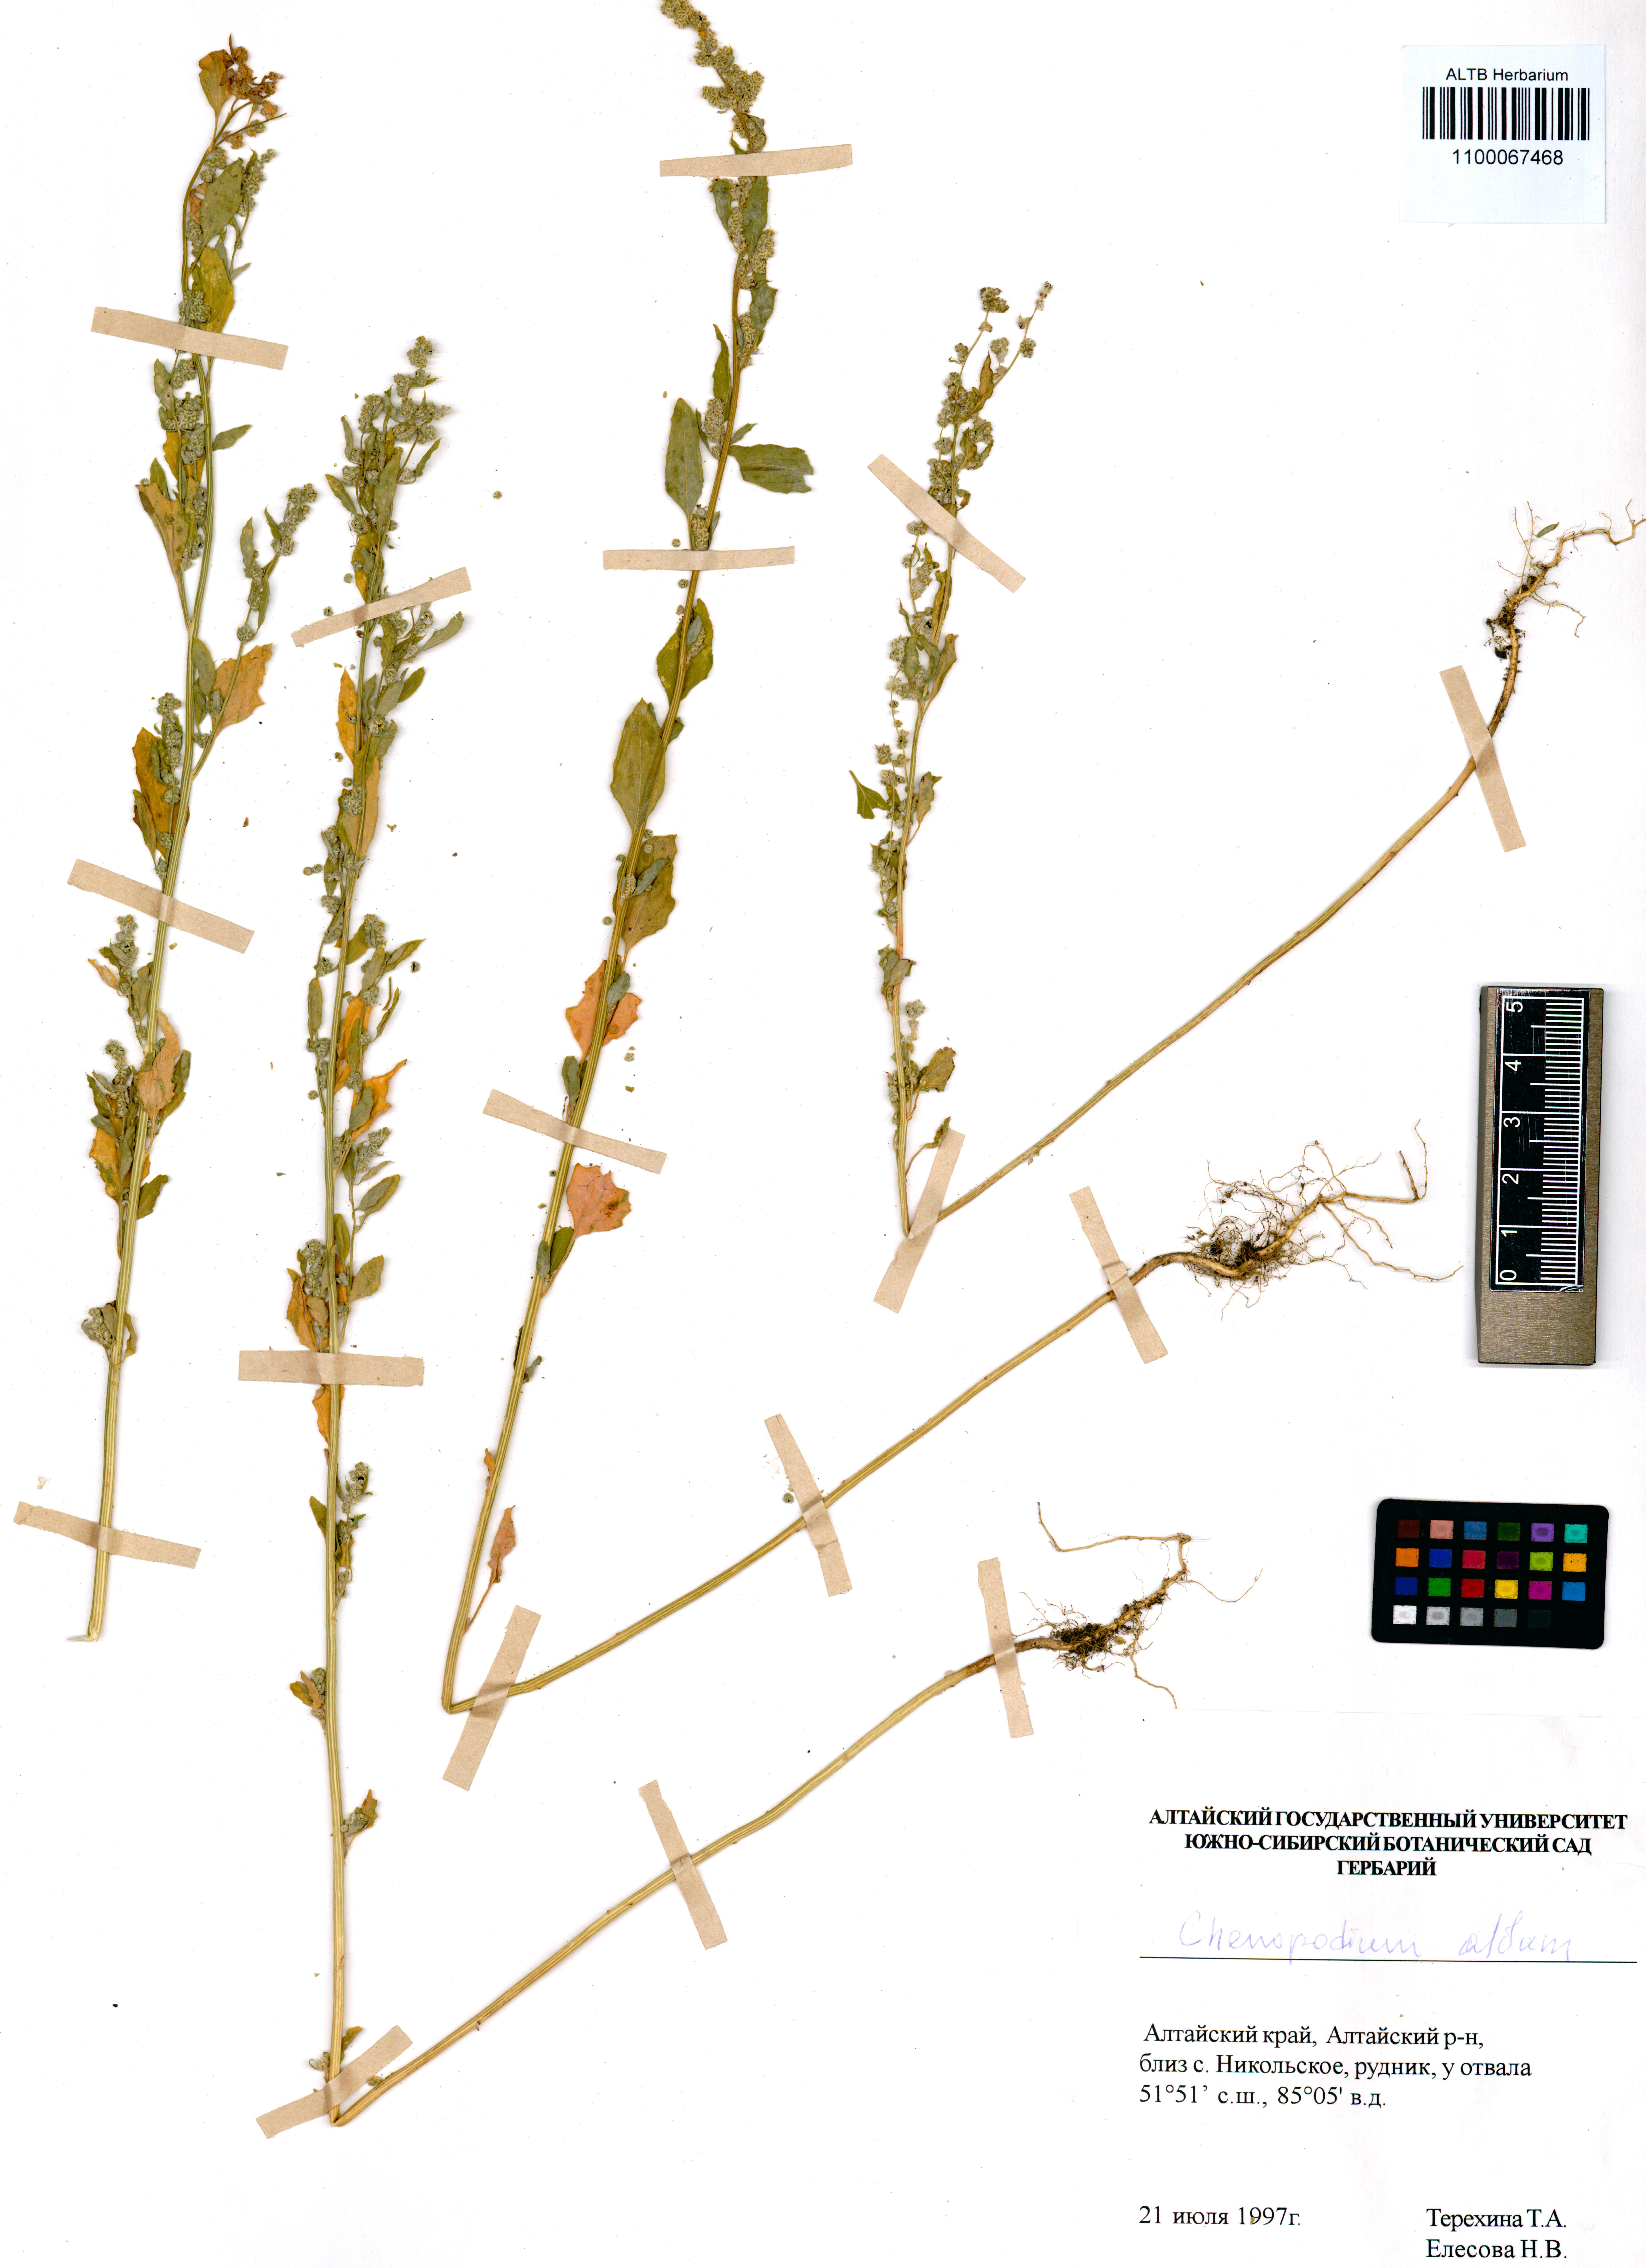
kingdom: Plantae
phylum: Tracheophyta
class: Magnoliopsida
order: Caryophyllales
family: Amaranthaceae
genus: Chenopodium
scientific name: Chenopodium album
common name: Fat-hen
